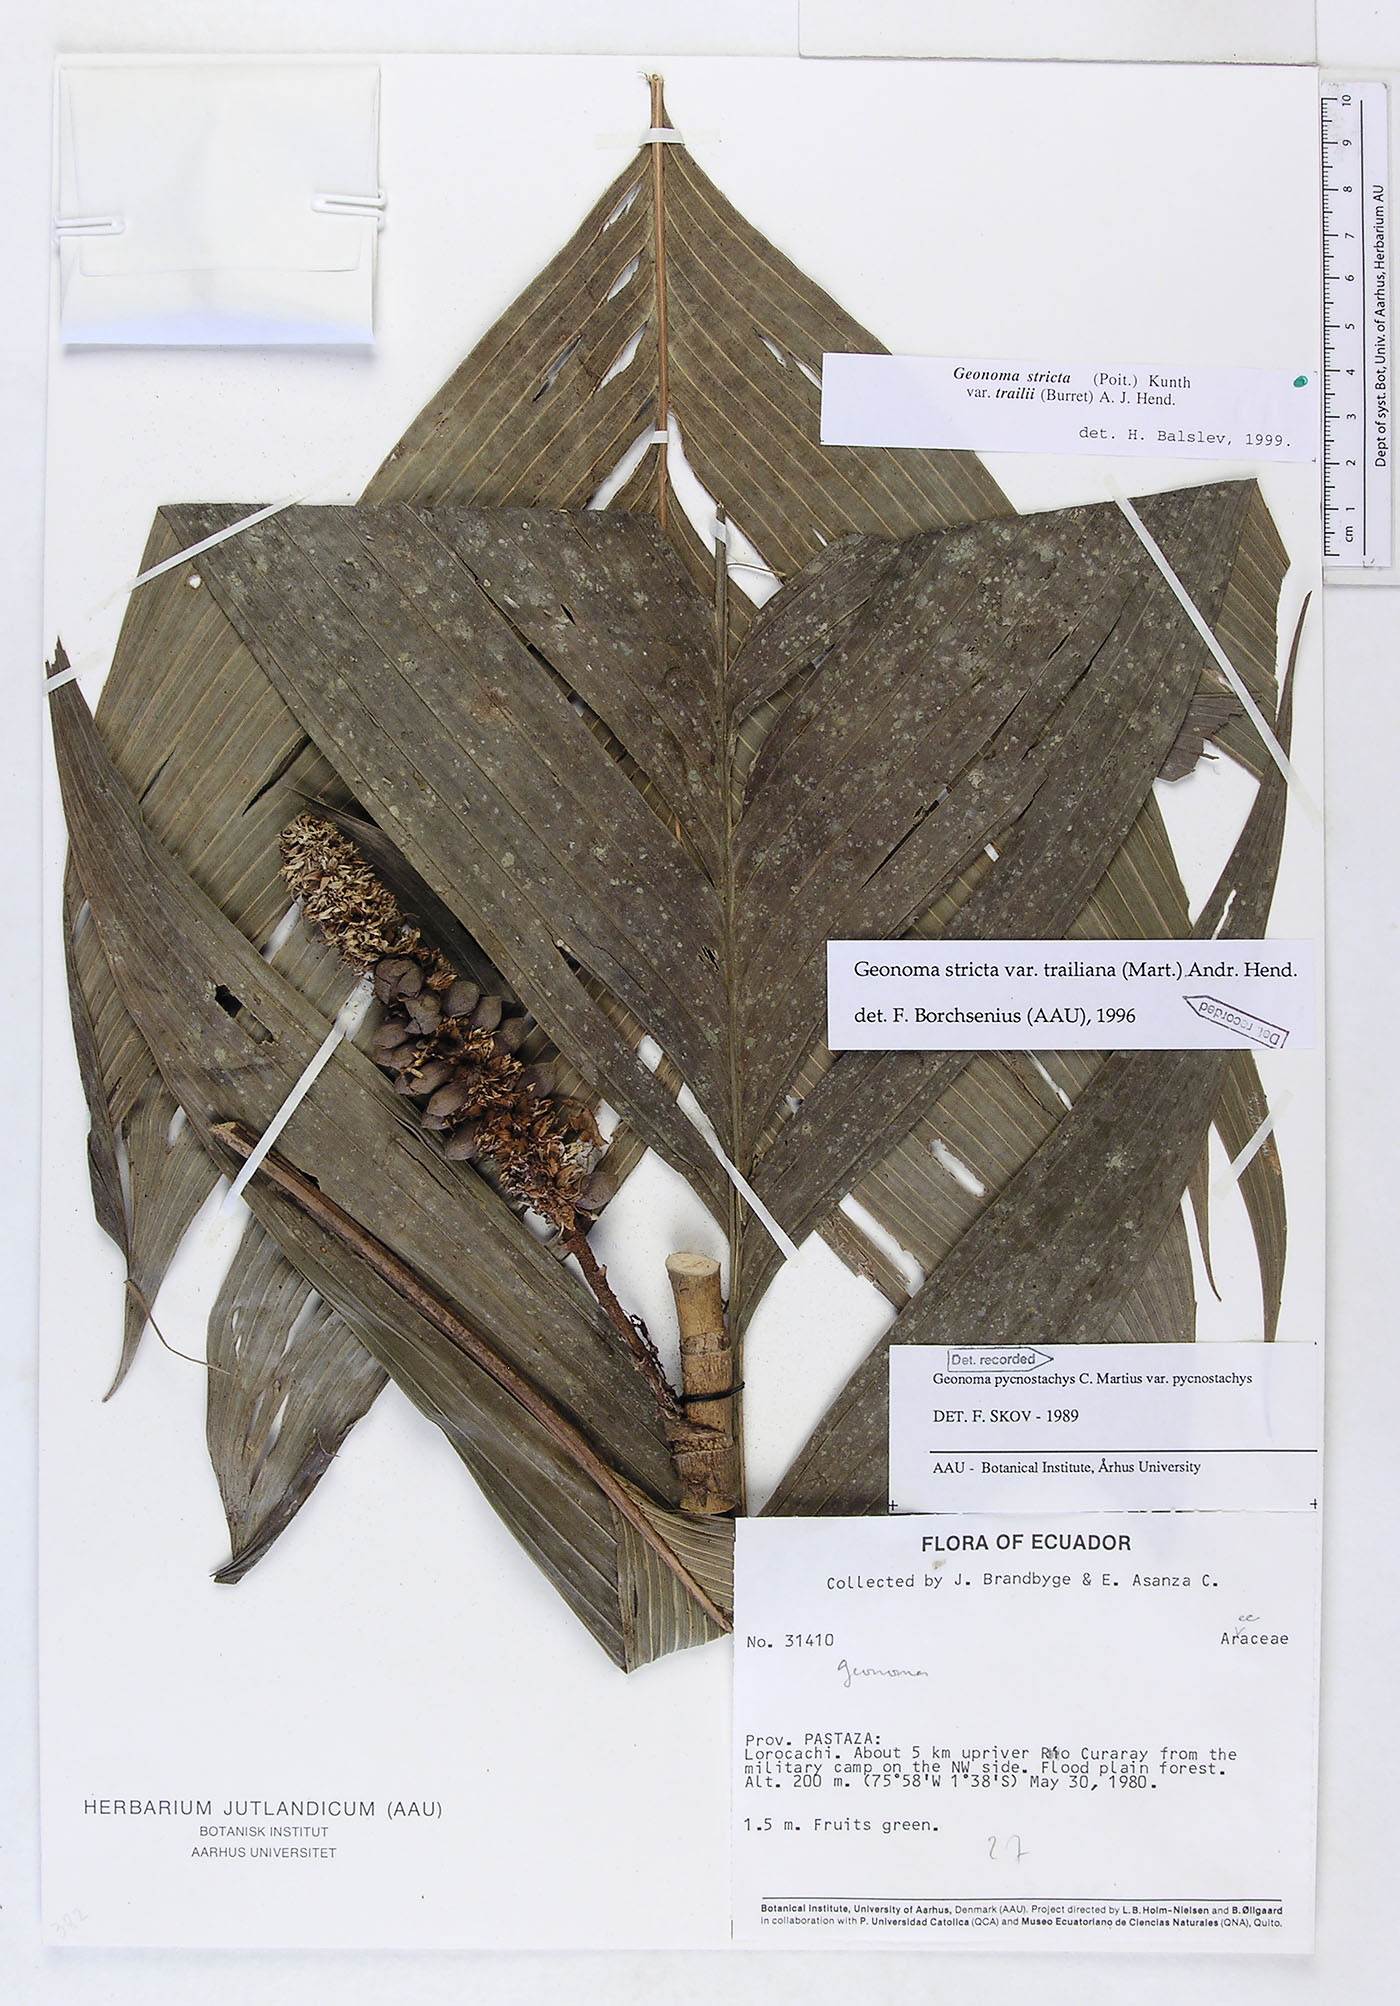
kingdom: Plantae
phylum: Tracheophyta
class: Liliopsida
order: Arecales
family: Arecaceae
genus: Geonoma
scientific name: Geonoma stricta
